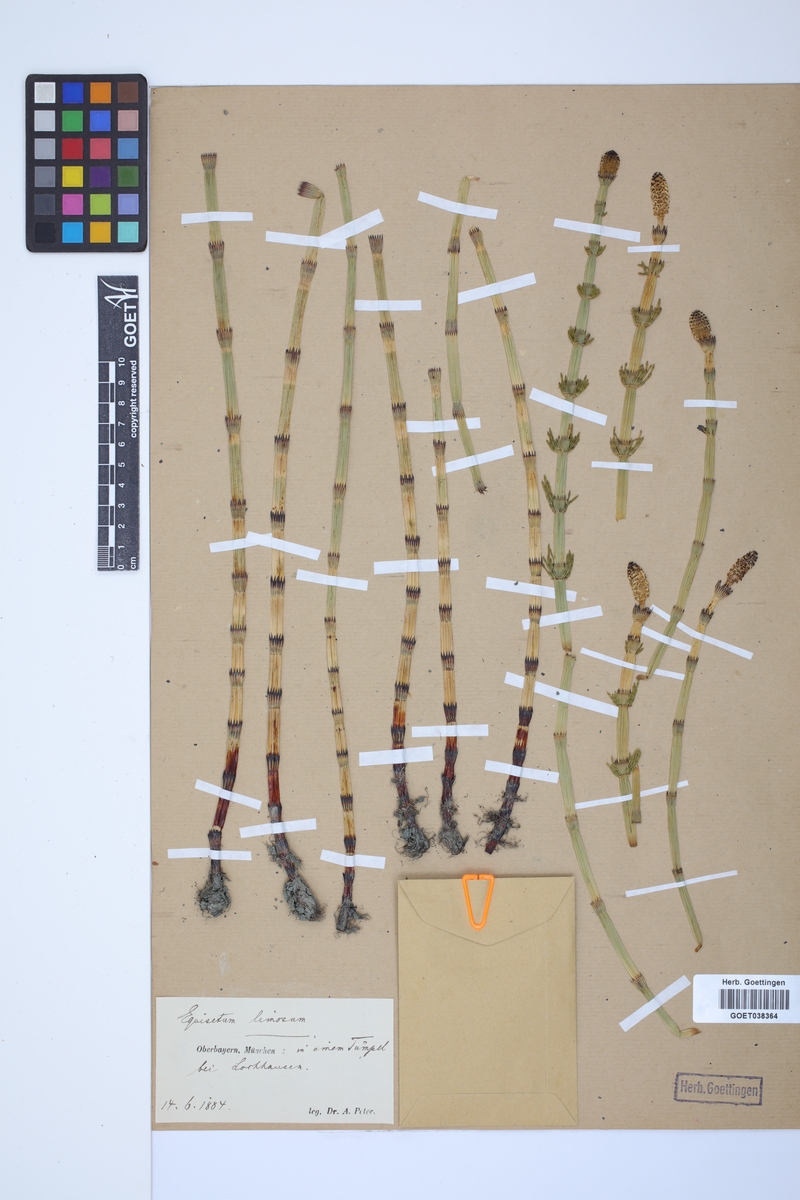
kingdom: Plantae
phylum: Tracheophyta
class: Polypodiopsida
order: Equisetales
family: Equisetaceae
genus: Equisetum
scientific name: Equisetum fluviatile
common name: Water horsetail
